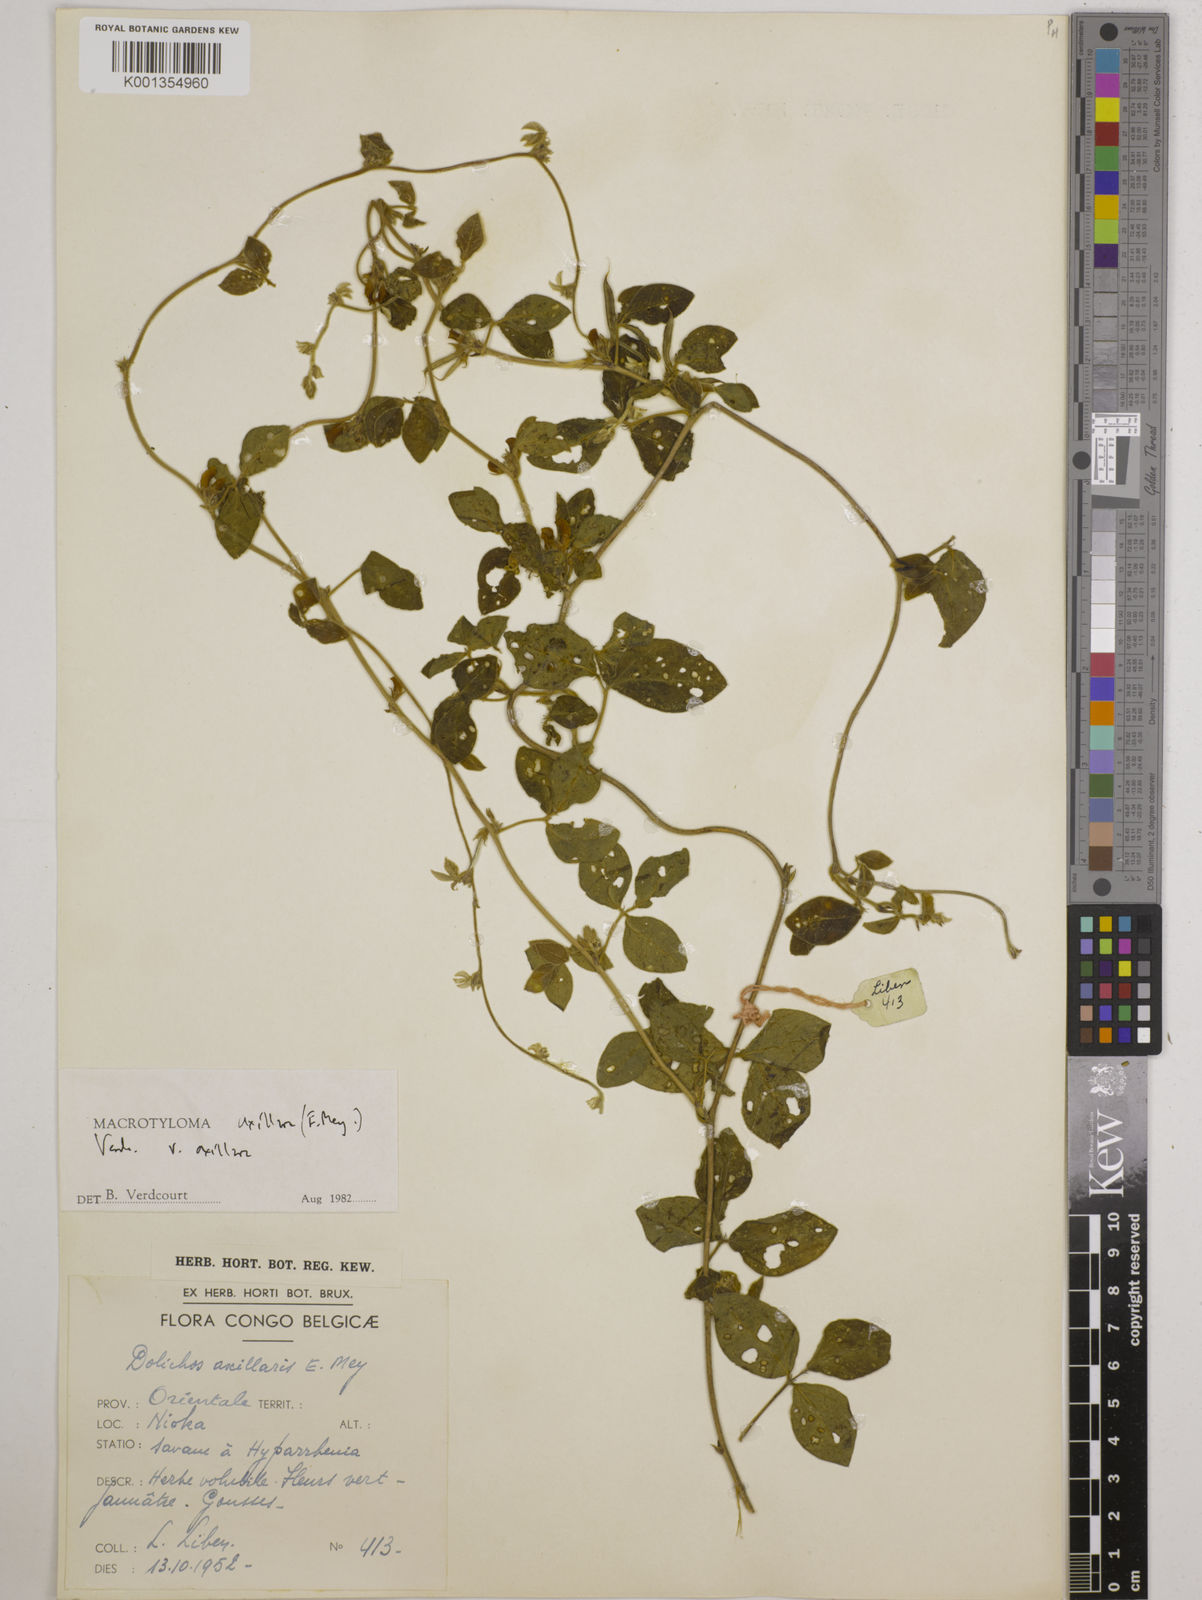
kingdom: Plantae
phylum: Tracheophyta
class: Magnoliopsida
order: Fabales
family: Fabaceae
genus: Macrotyloma
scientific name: Macrotyloma axillare
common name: Perennial horsegram
